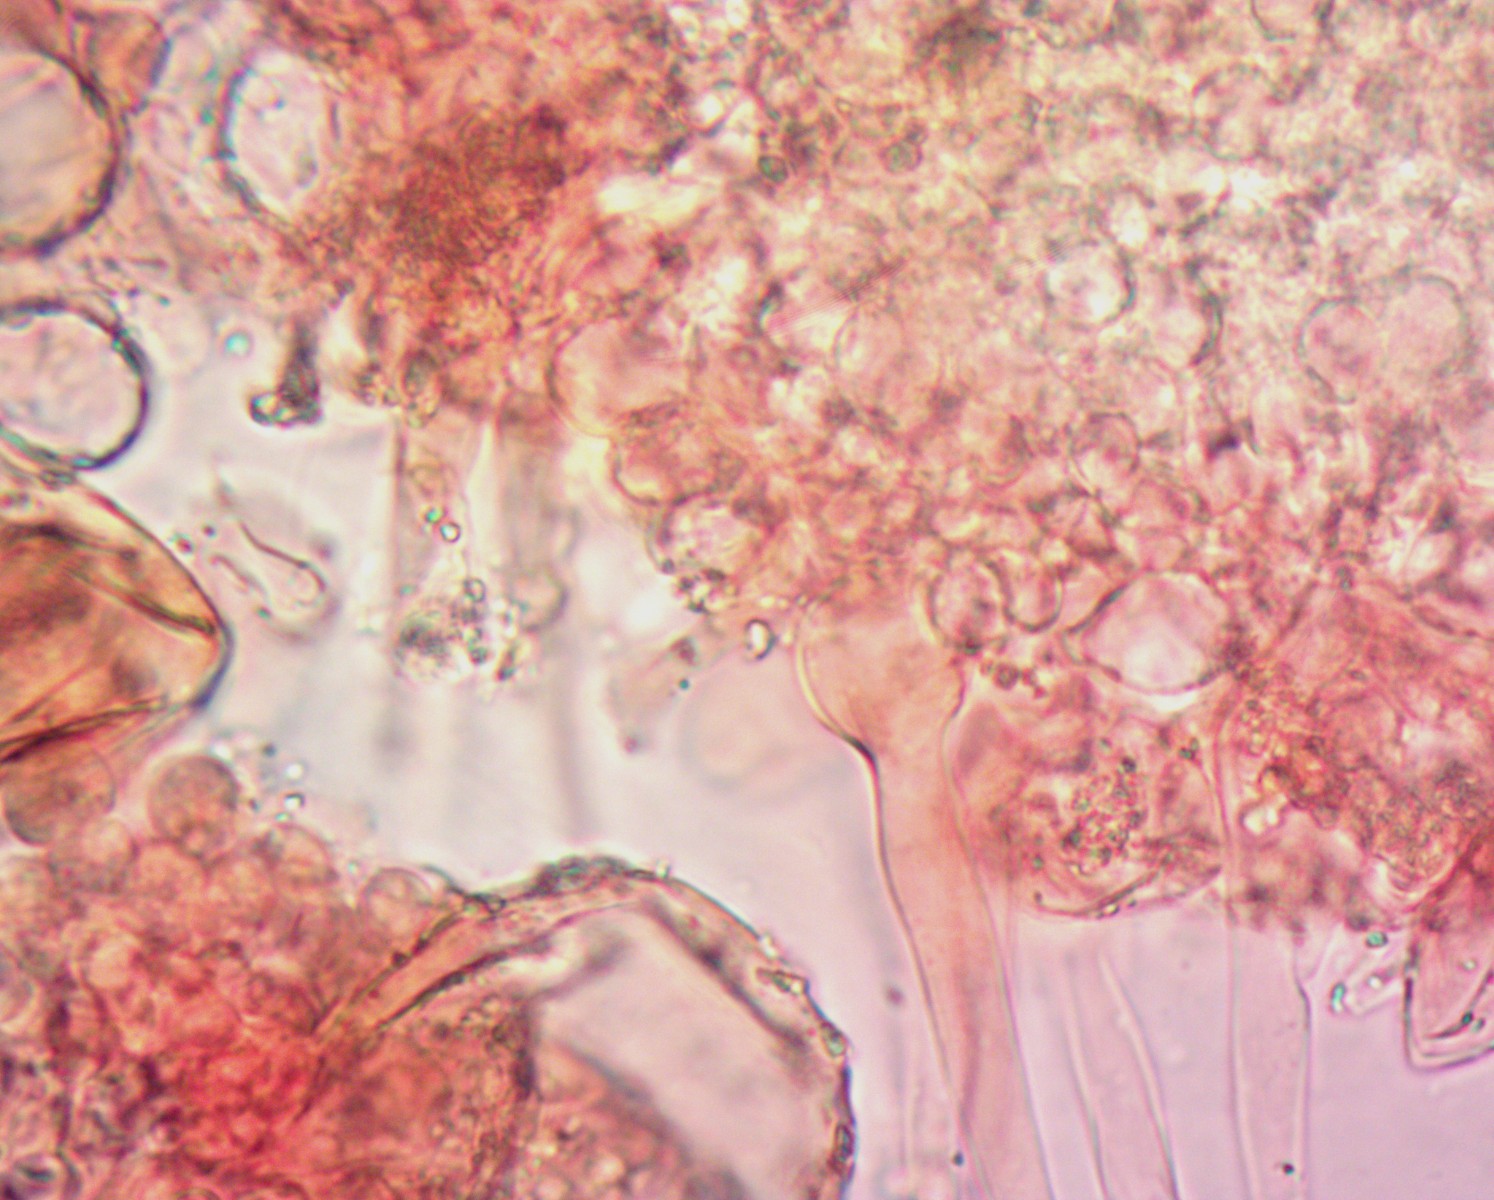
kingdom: Fungi
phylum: Basidiomycota
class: Agaricomycetes
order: Agaricales
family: Psathyrellaceae
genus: Coprinellus
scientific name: Coprinellus pusillulus
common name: lillebitte blækhat
